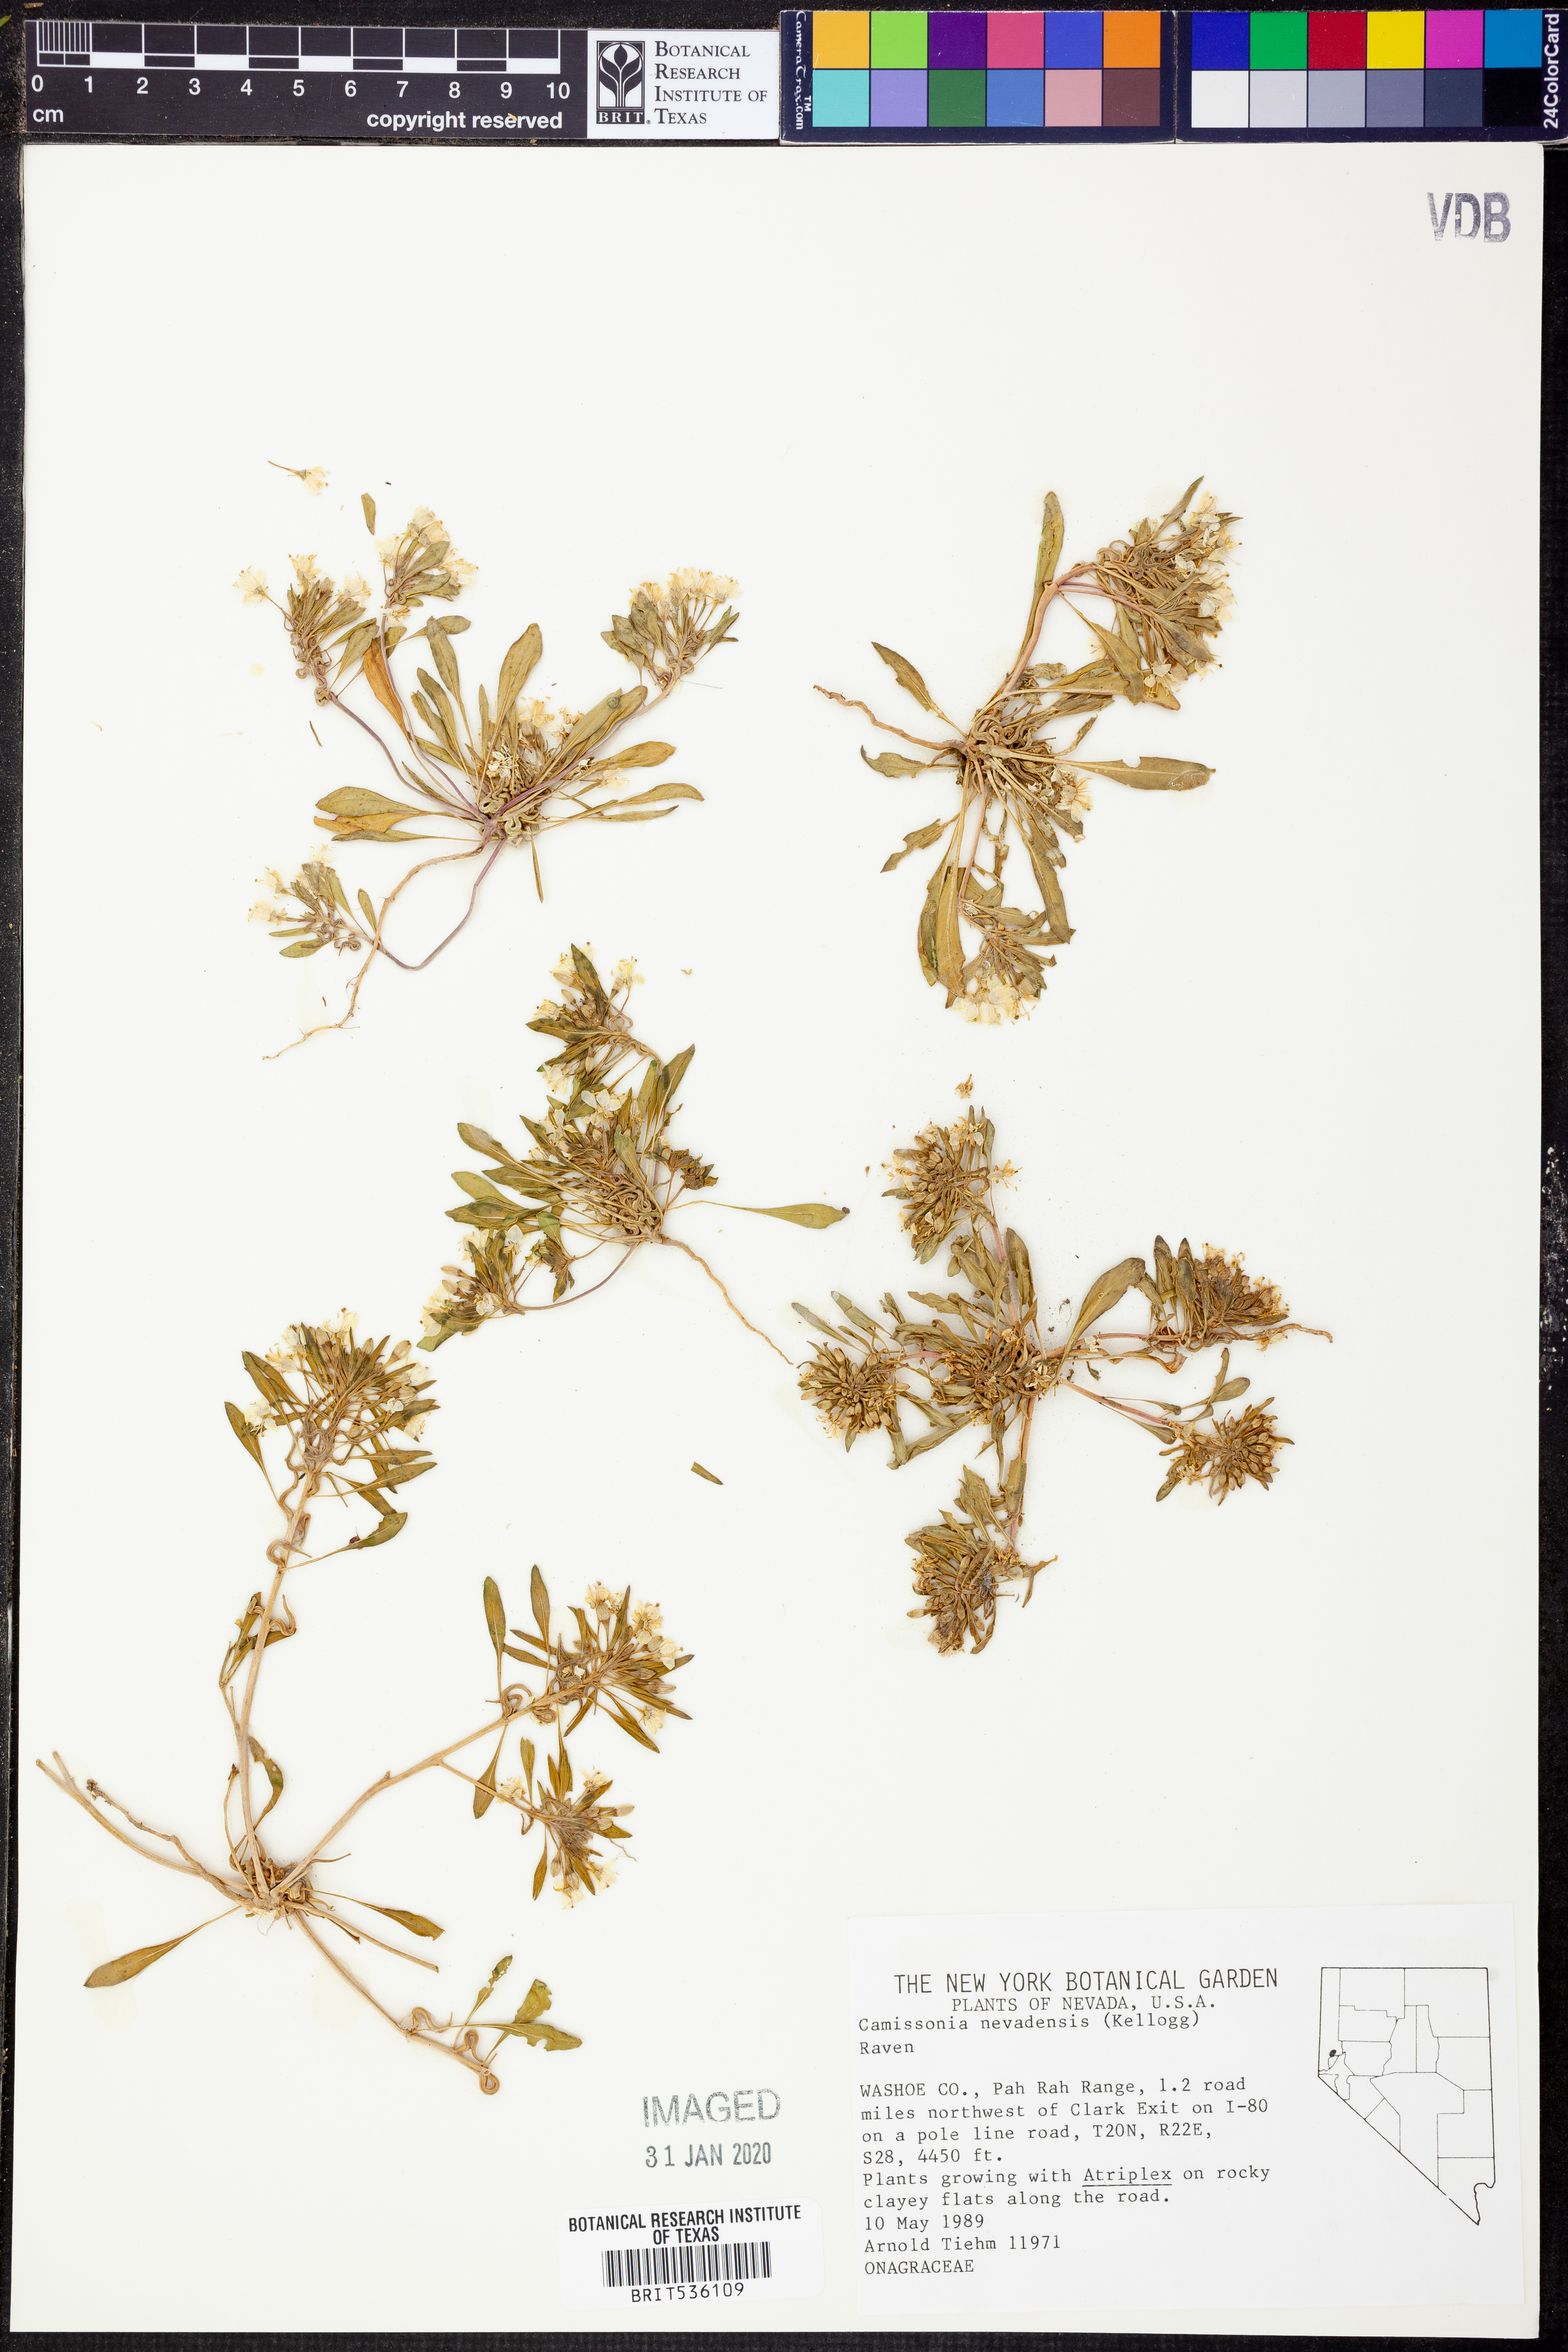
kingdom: Plantae
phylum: Tracheophyta
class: Magnoliopsida
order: Myrtales
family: Onagraceae
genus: Eremothera
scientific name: Eremothera nevadensis
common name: Nevada suncup
